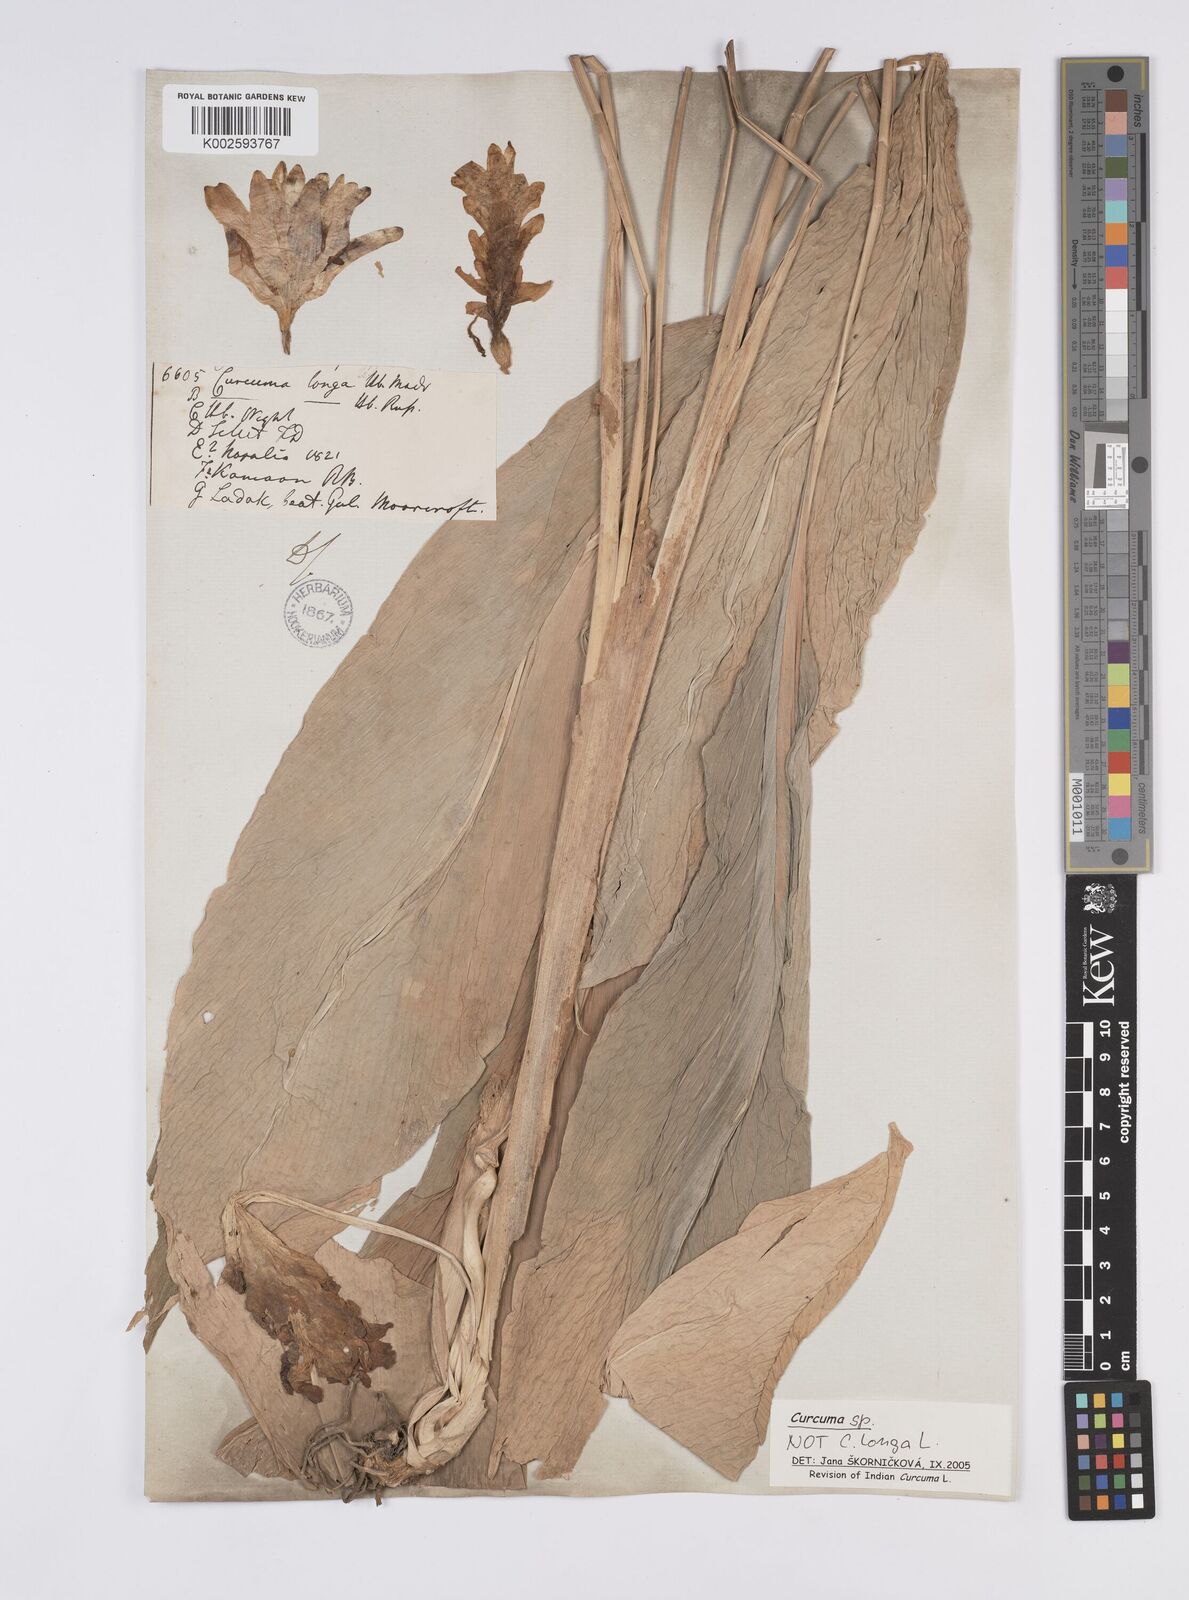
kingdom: Plantae
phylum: Tracheophyta
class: Liliopsida
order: Zingiberales
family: Zingiberaceae
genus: Curcuma
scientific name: Curcuma
